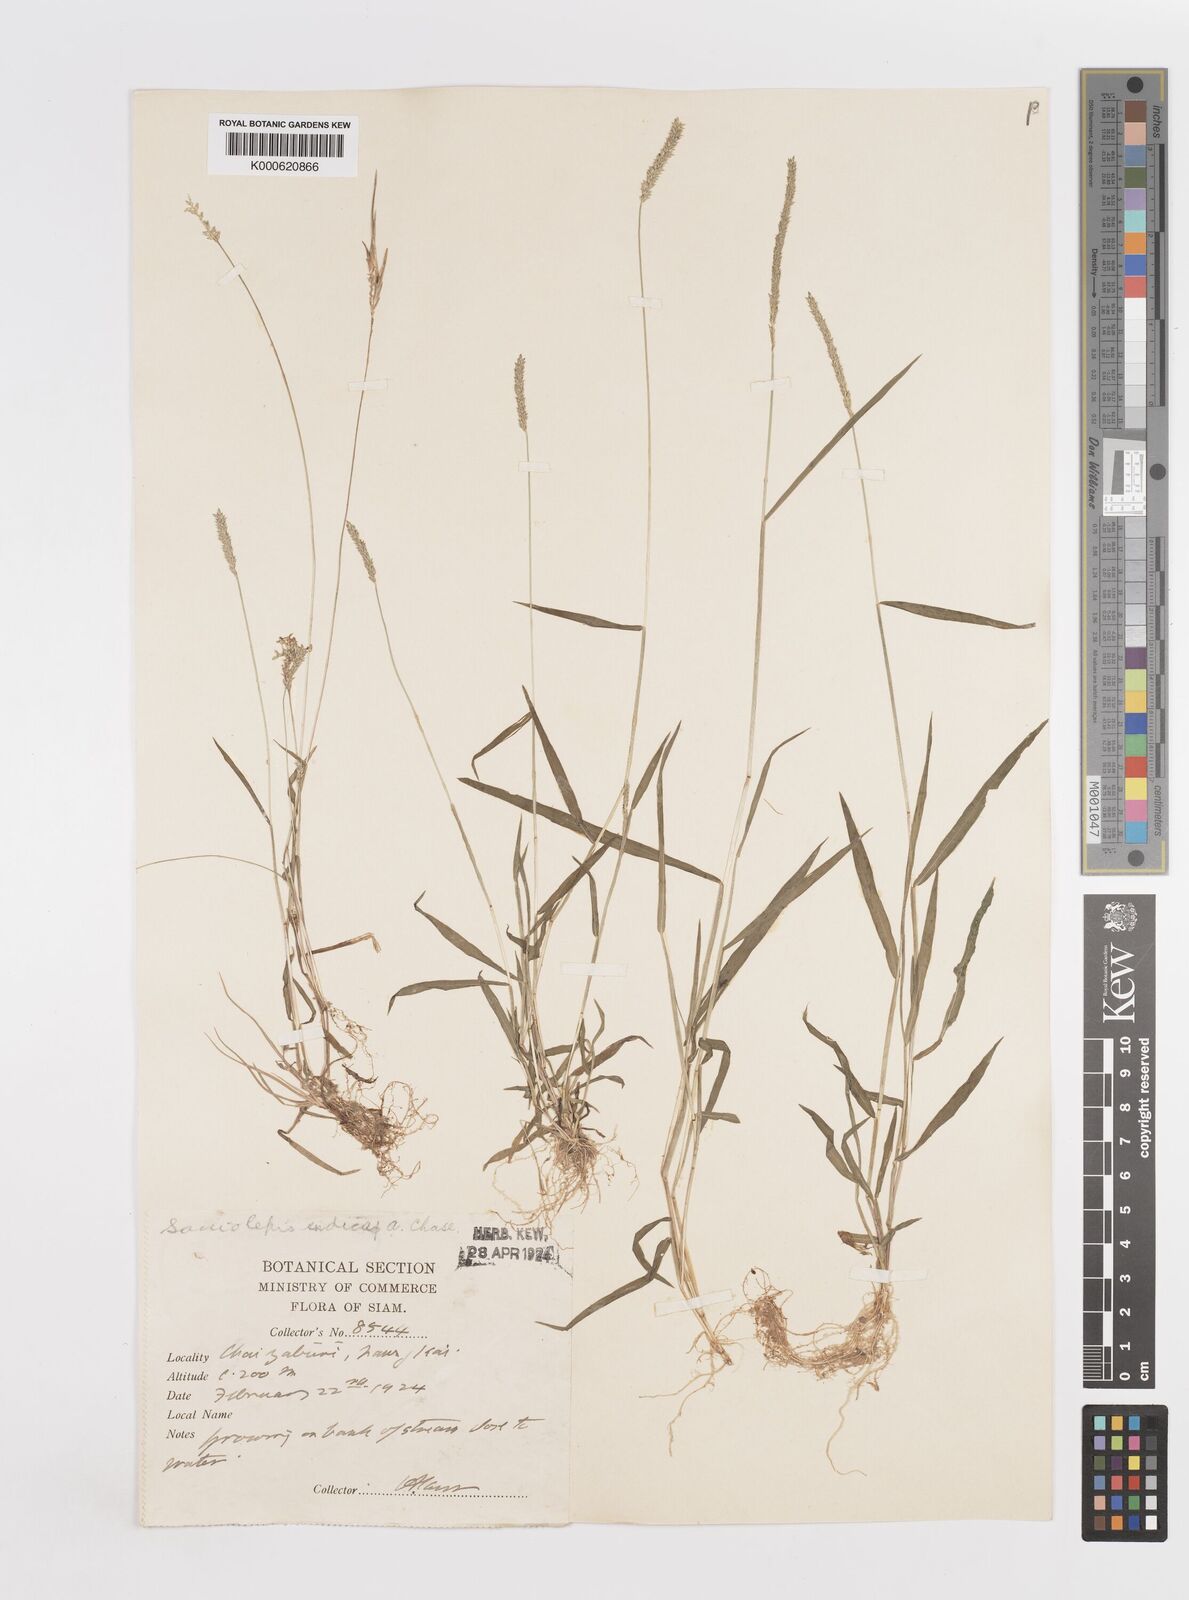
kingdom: Plantae
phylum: Tracheophyta
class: Liliopsida
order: Poales
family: Poaceae
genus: Sacciolepis
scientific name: Sacciolepis indica
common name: Glenwoodgrass
